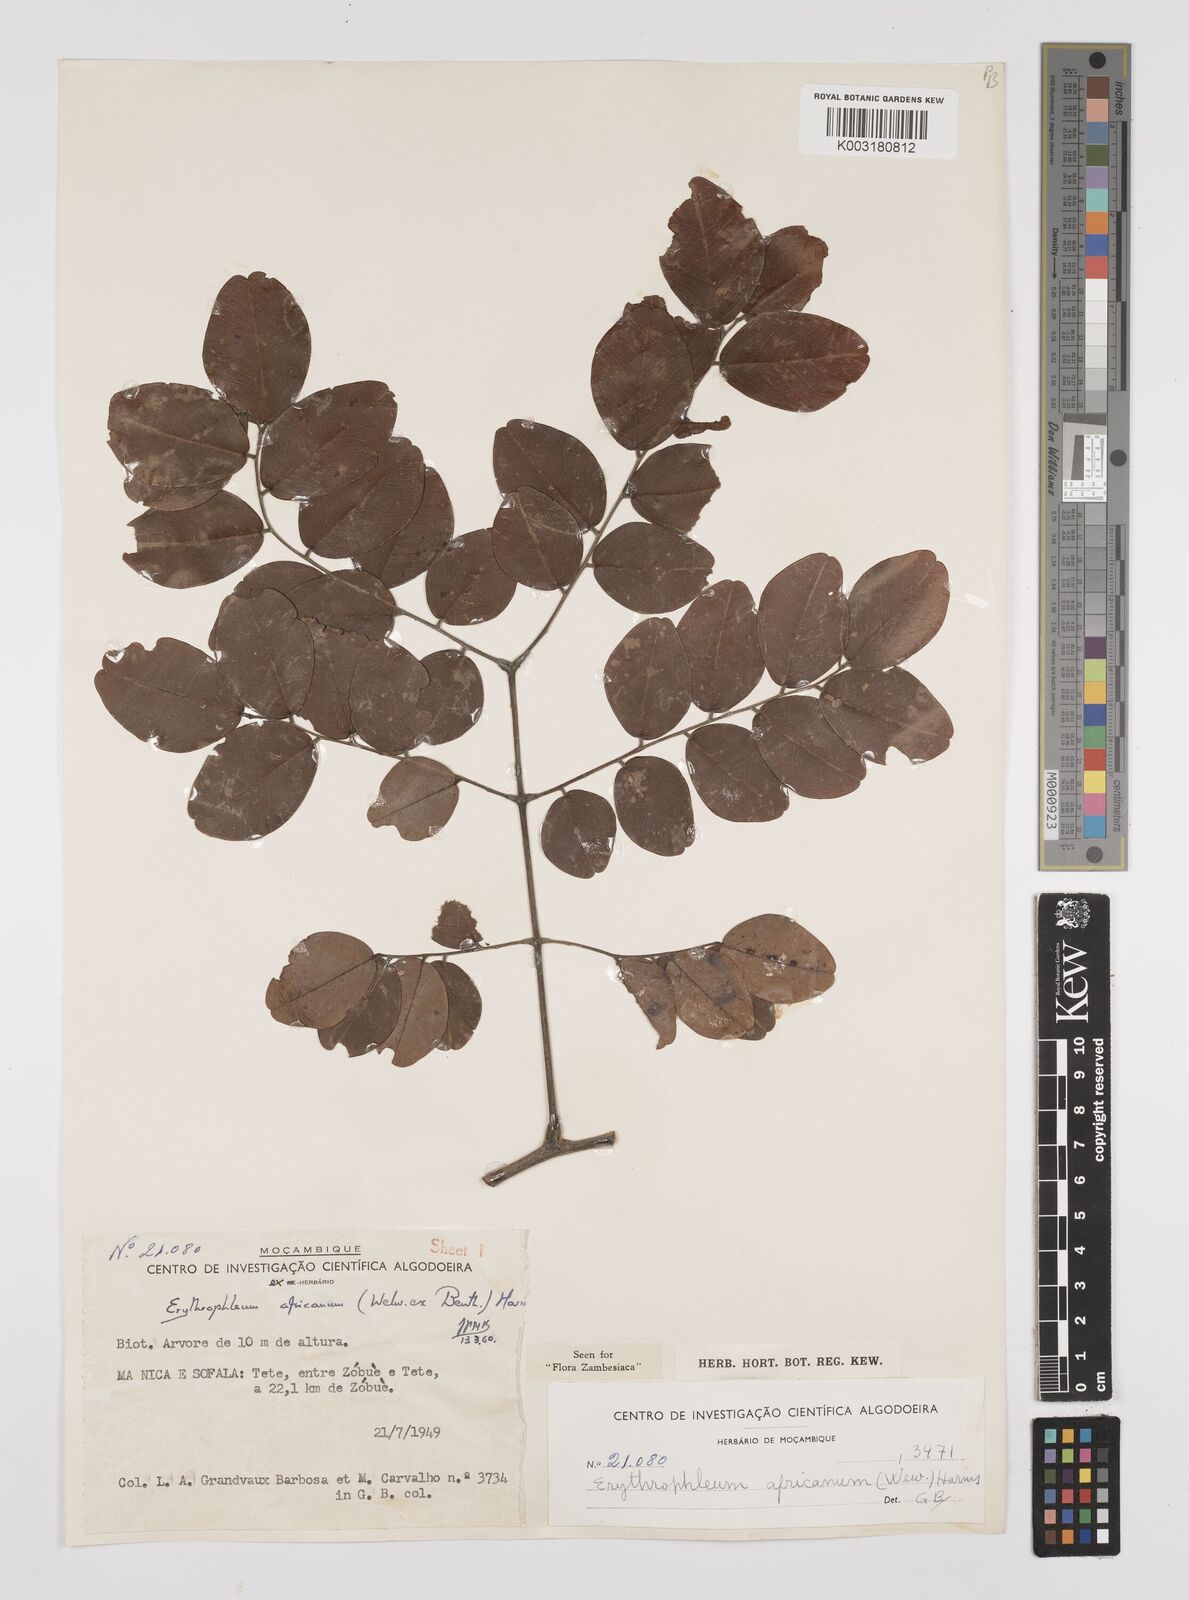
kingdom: Plantae
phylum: Tracheophyta
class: Magnoliopsida
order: Fabales
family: Fabaceae
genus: Peltophorum
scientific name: Peltophorum africanum
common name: African black wattle
